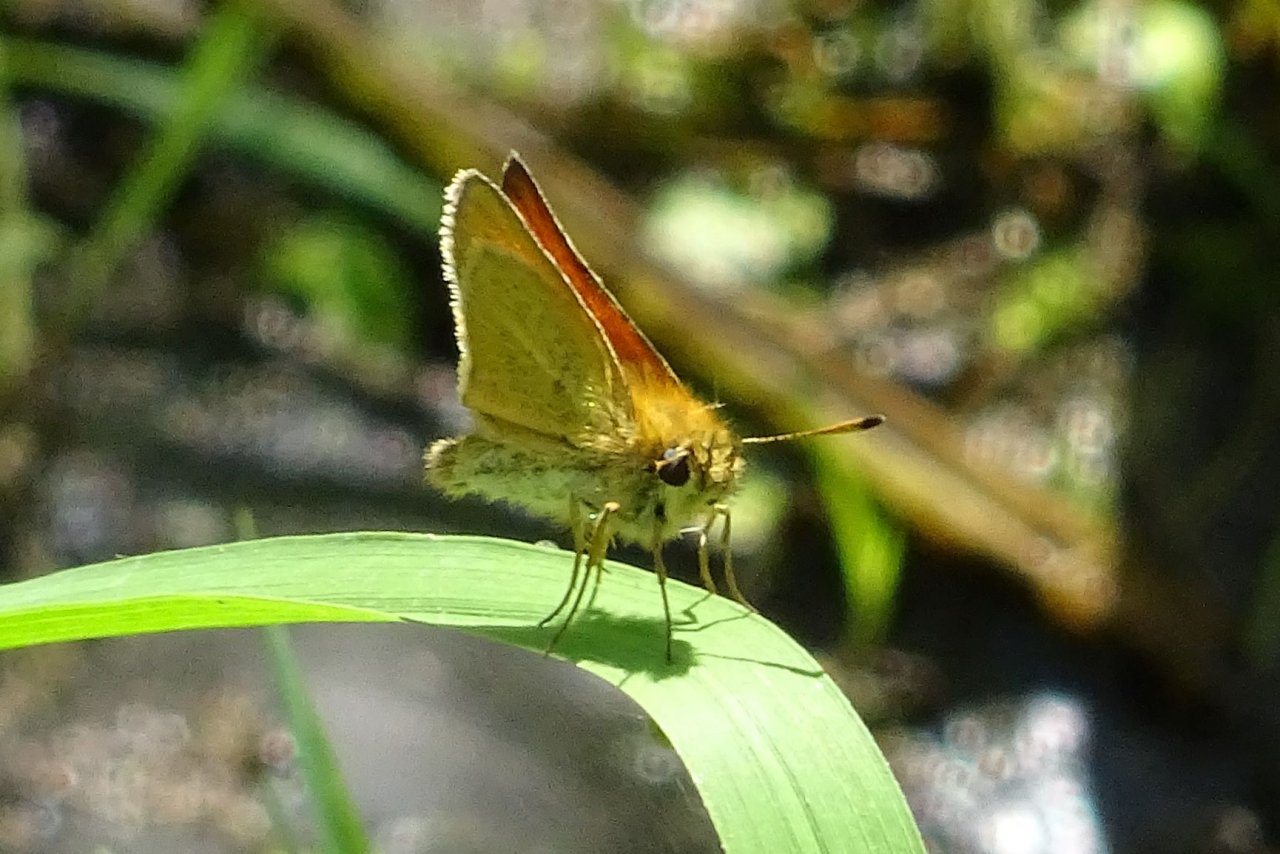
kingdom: Animalia
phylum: Arthropoda
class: Insecta
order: Lepidoptera
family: Hesperiidae
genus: Thymelicus
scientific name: Thymelicus lineola
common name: European Skipper
